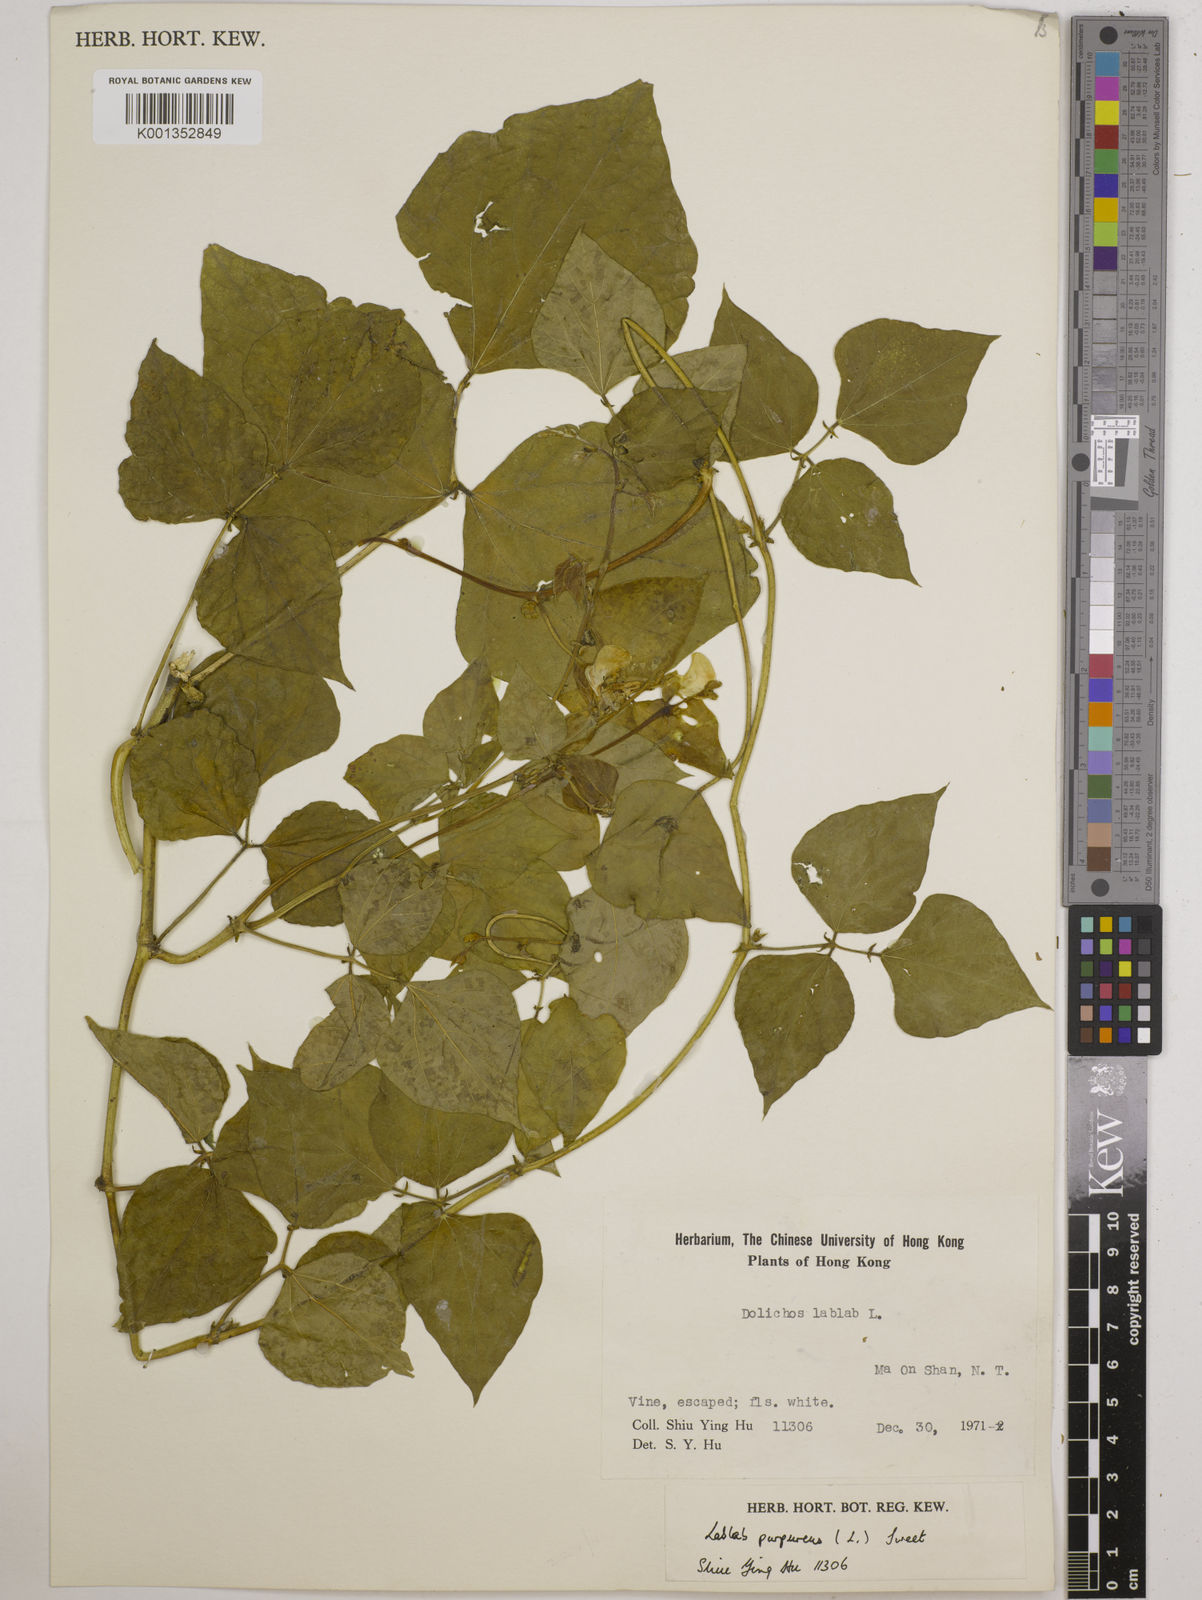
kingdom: Plantae
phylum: Tracheophyta
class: Magnoliopsida
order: Fabales
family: Fabaceae
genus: Lablab
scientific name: Lablab purpureus
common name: Lablab-bean
